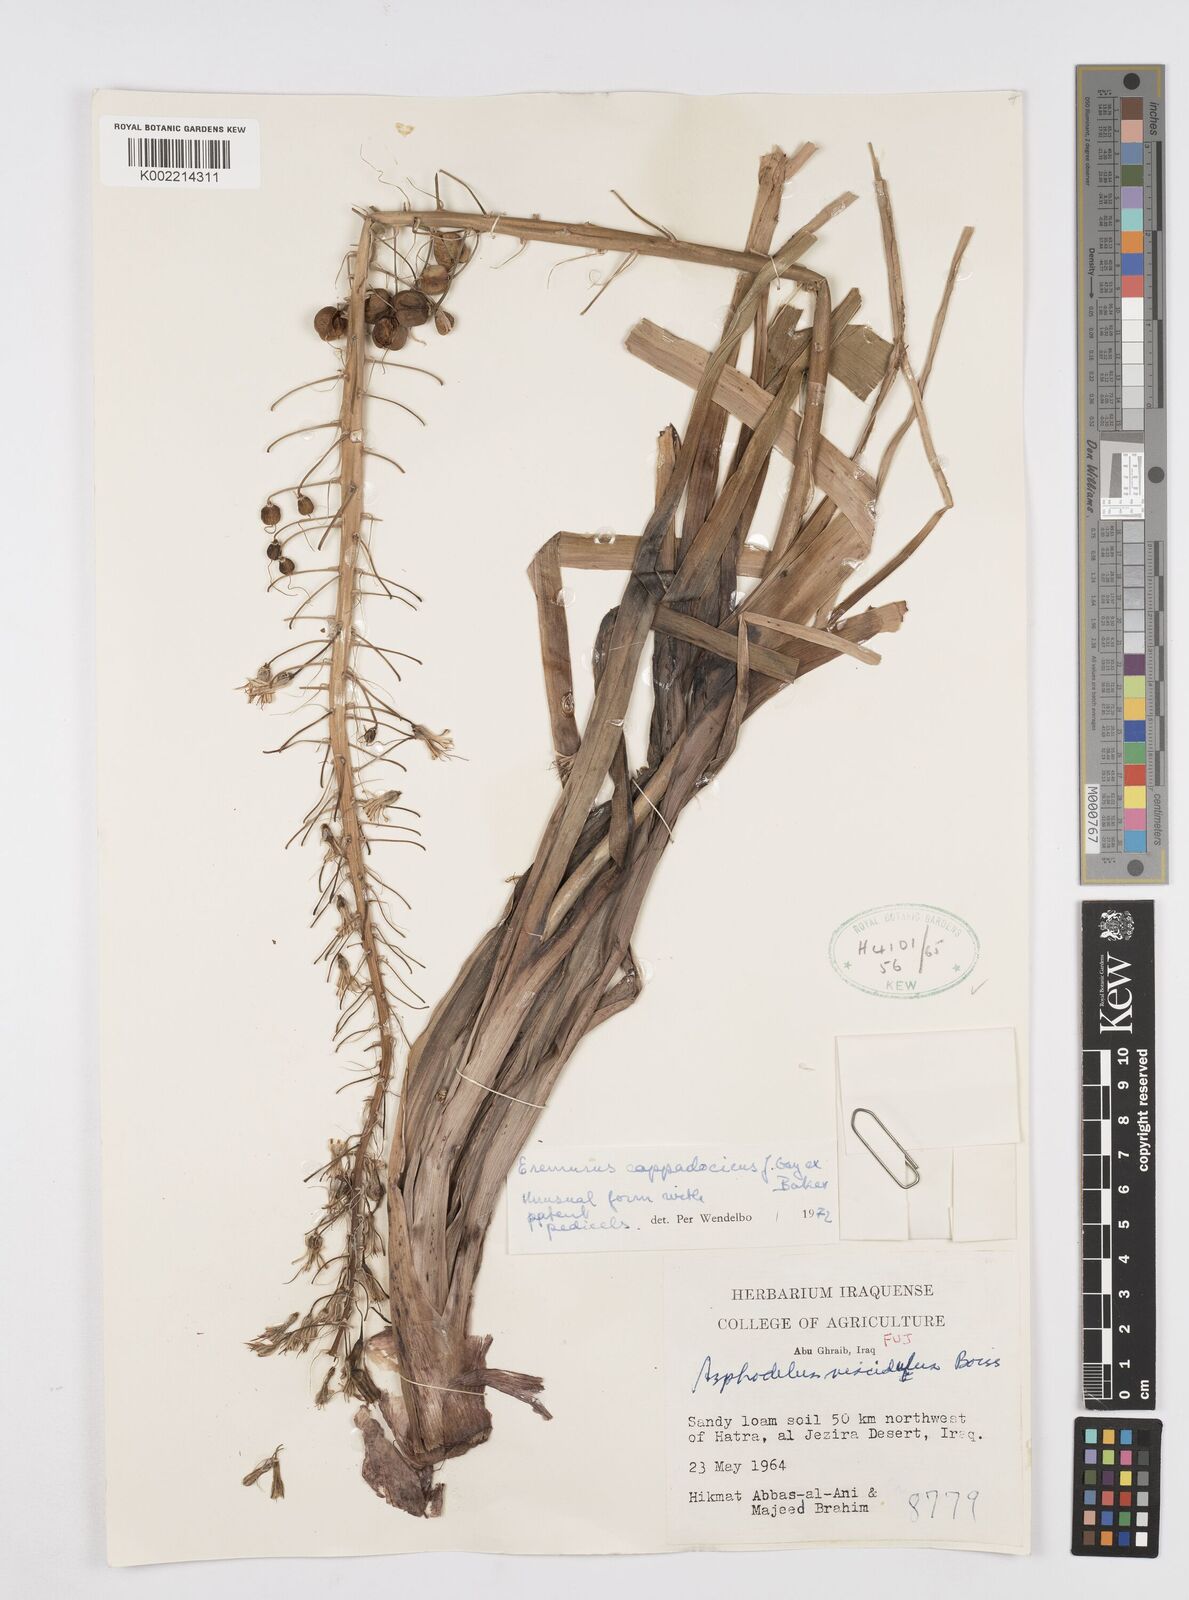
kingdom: Plantae
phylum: Tracheophyta
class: Liliopsida
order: Asparagales
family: Asphodelaceae
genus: Eremurus
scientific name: Eremurus cappadocicus
